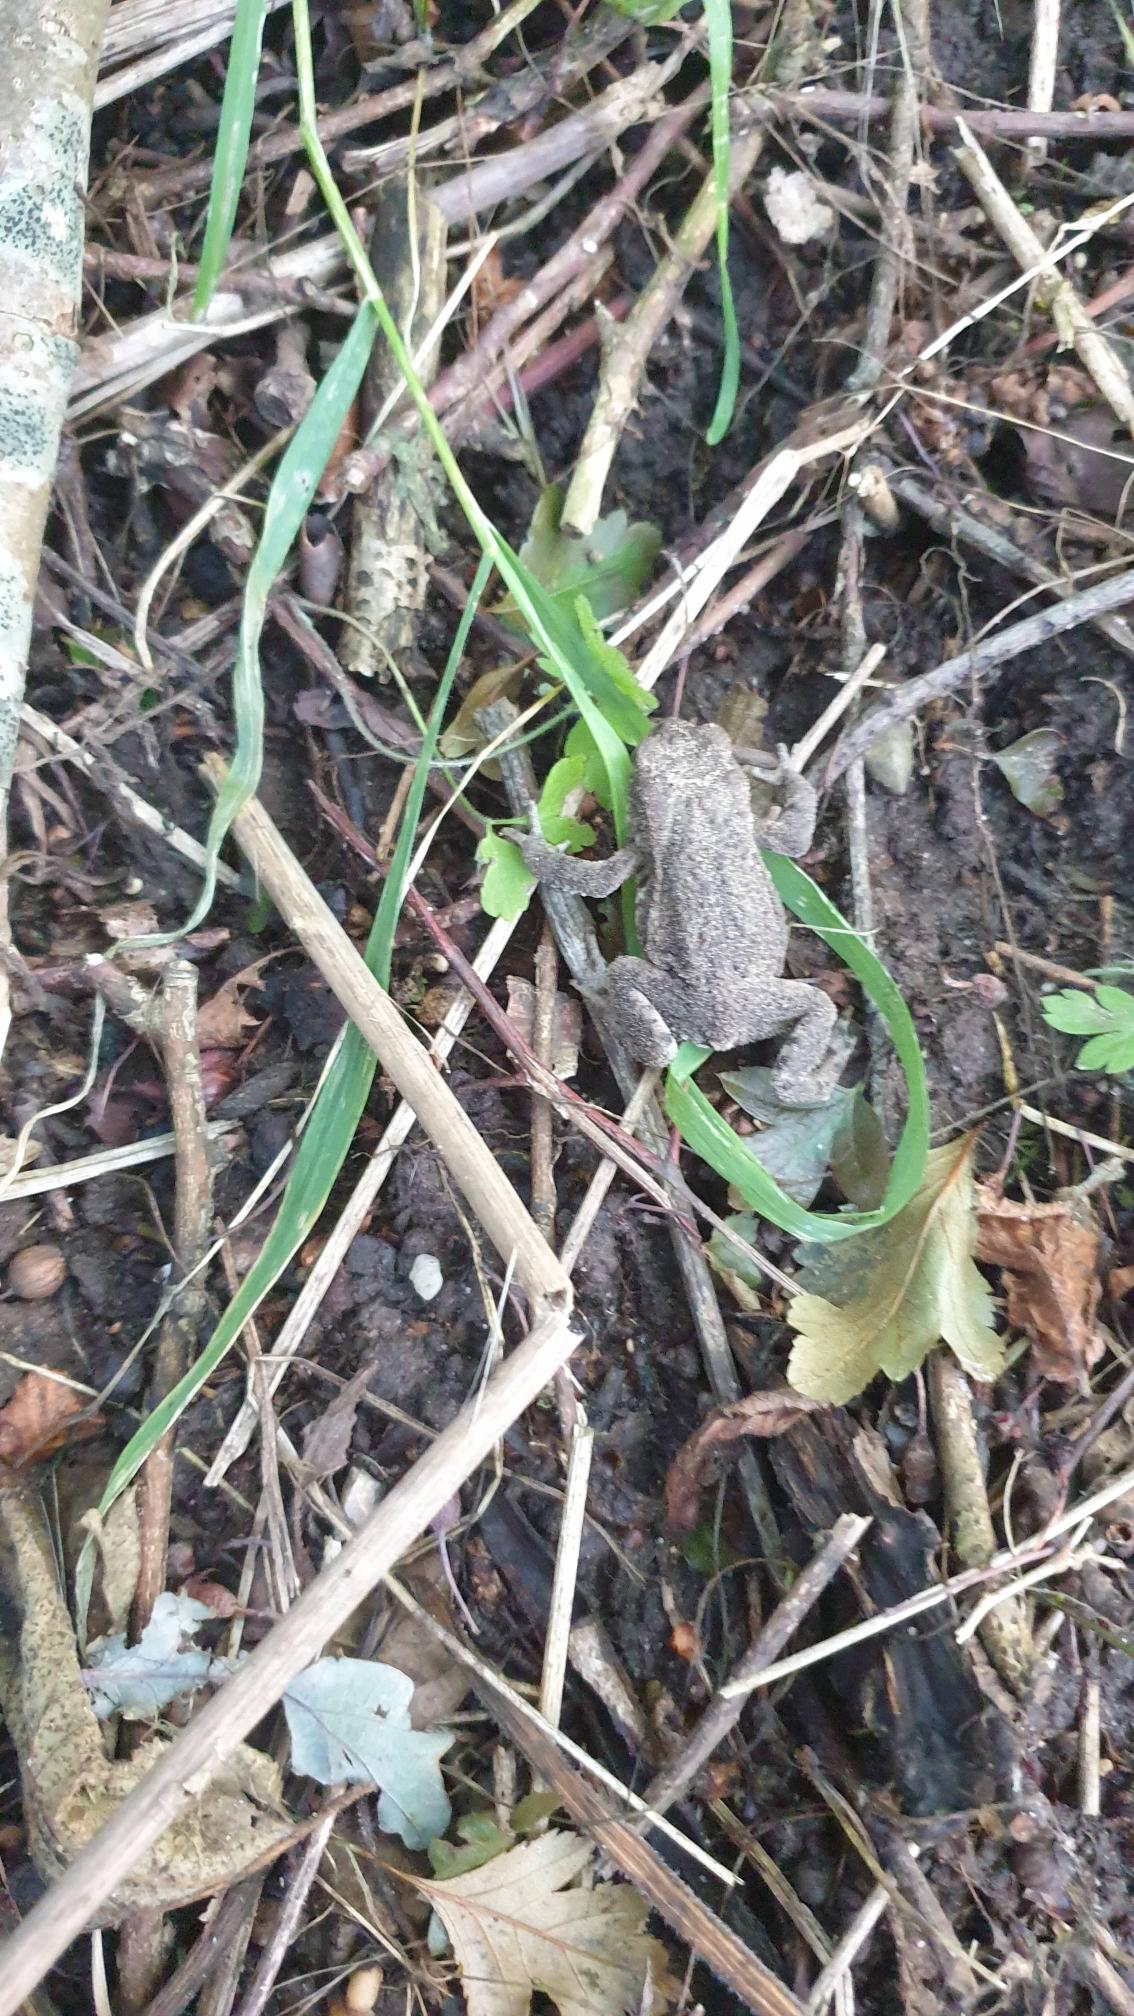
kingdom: Animalia
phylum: Chordata
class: Amphibia
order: Anura
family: Bufonidae
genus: Bufo
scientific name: Bufo bufo
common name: Skrubtudse
